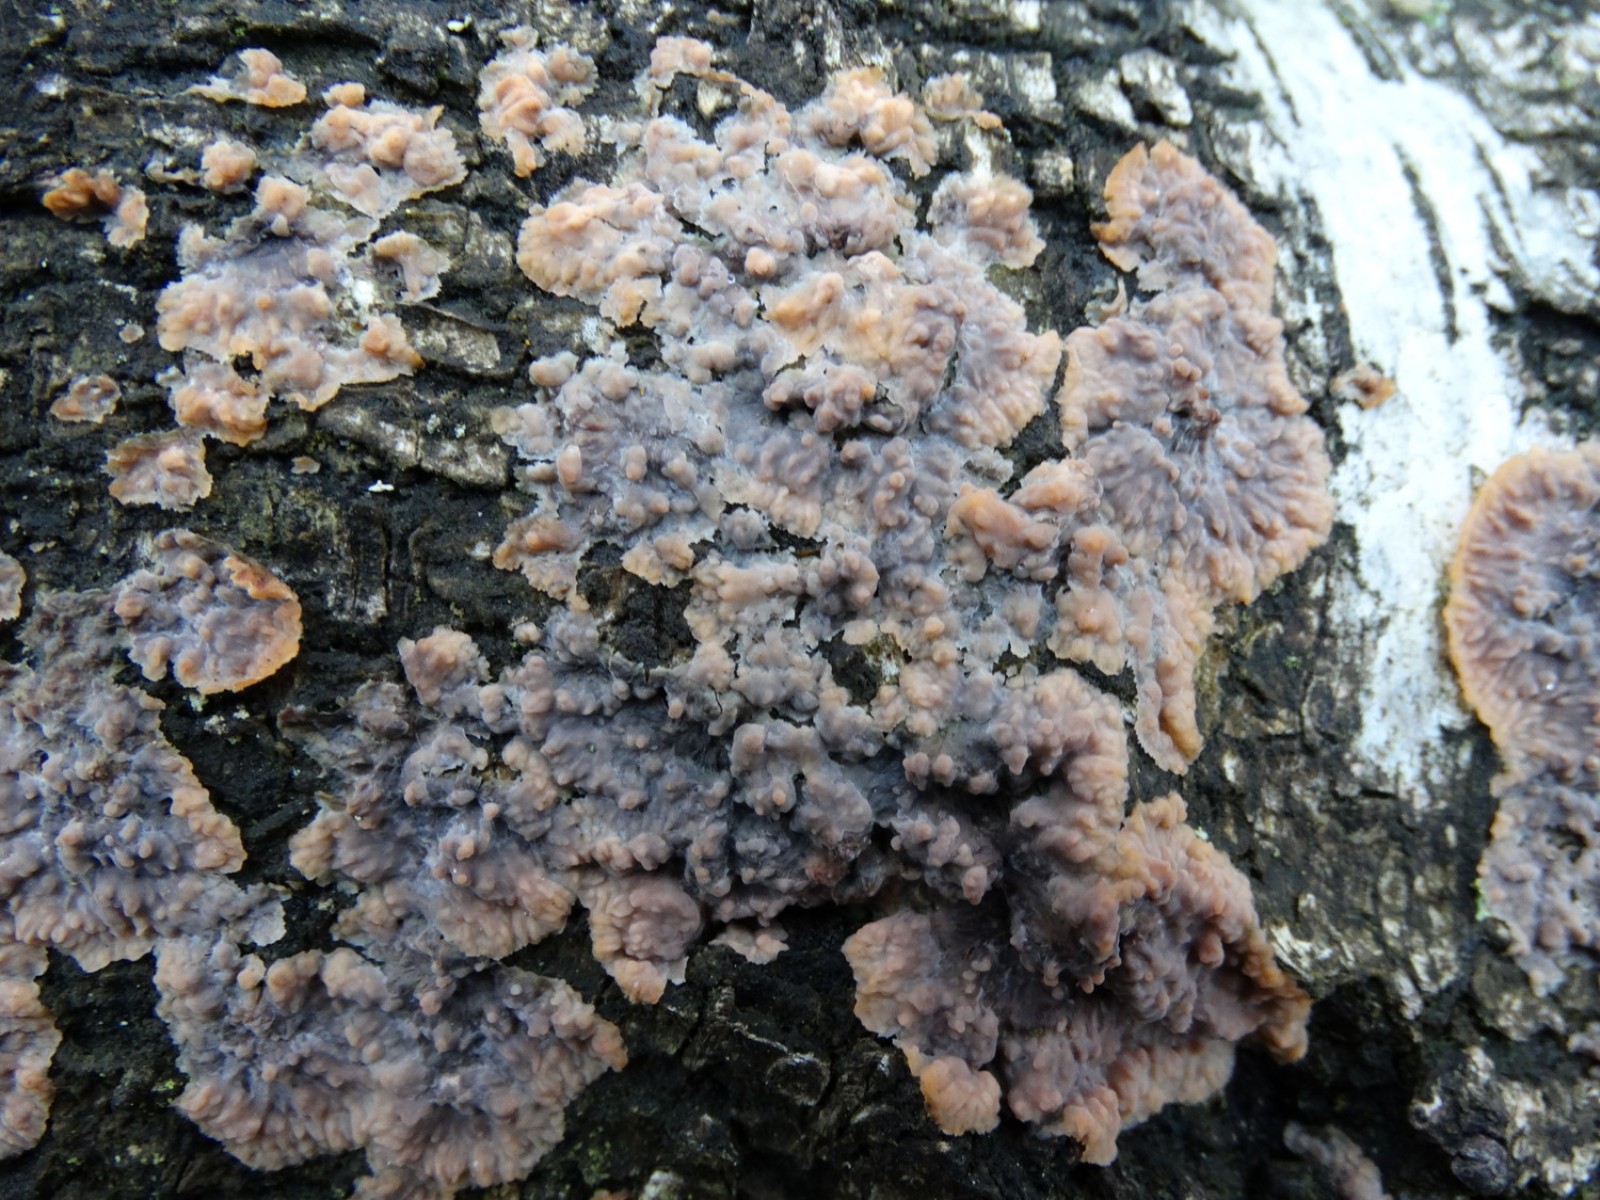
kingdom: Fungi
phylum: Basidiomycota
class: Agaricomycetes
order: Polyporales
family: Meruliaceae
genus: Phlebia
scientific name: Phlebia radiata
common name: stråle-åresvamp
